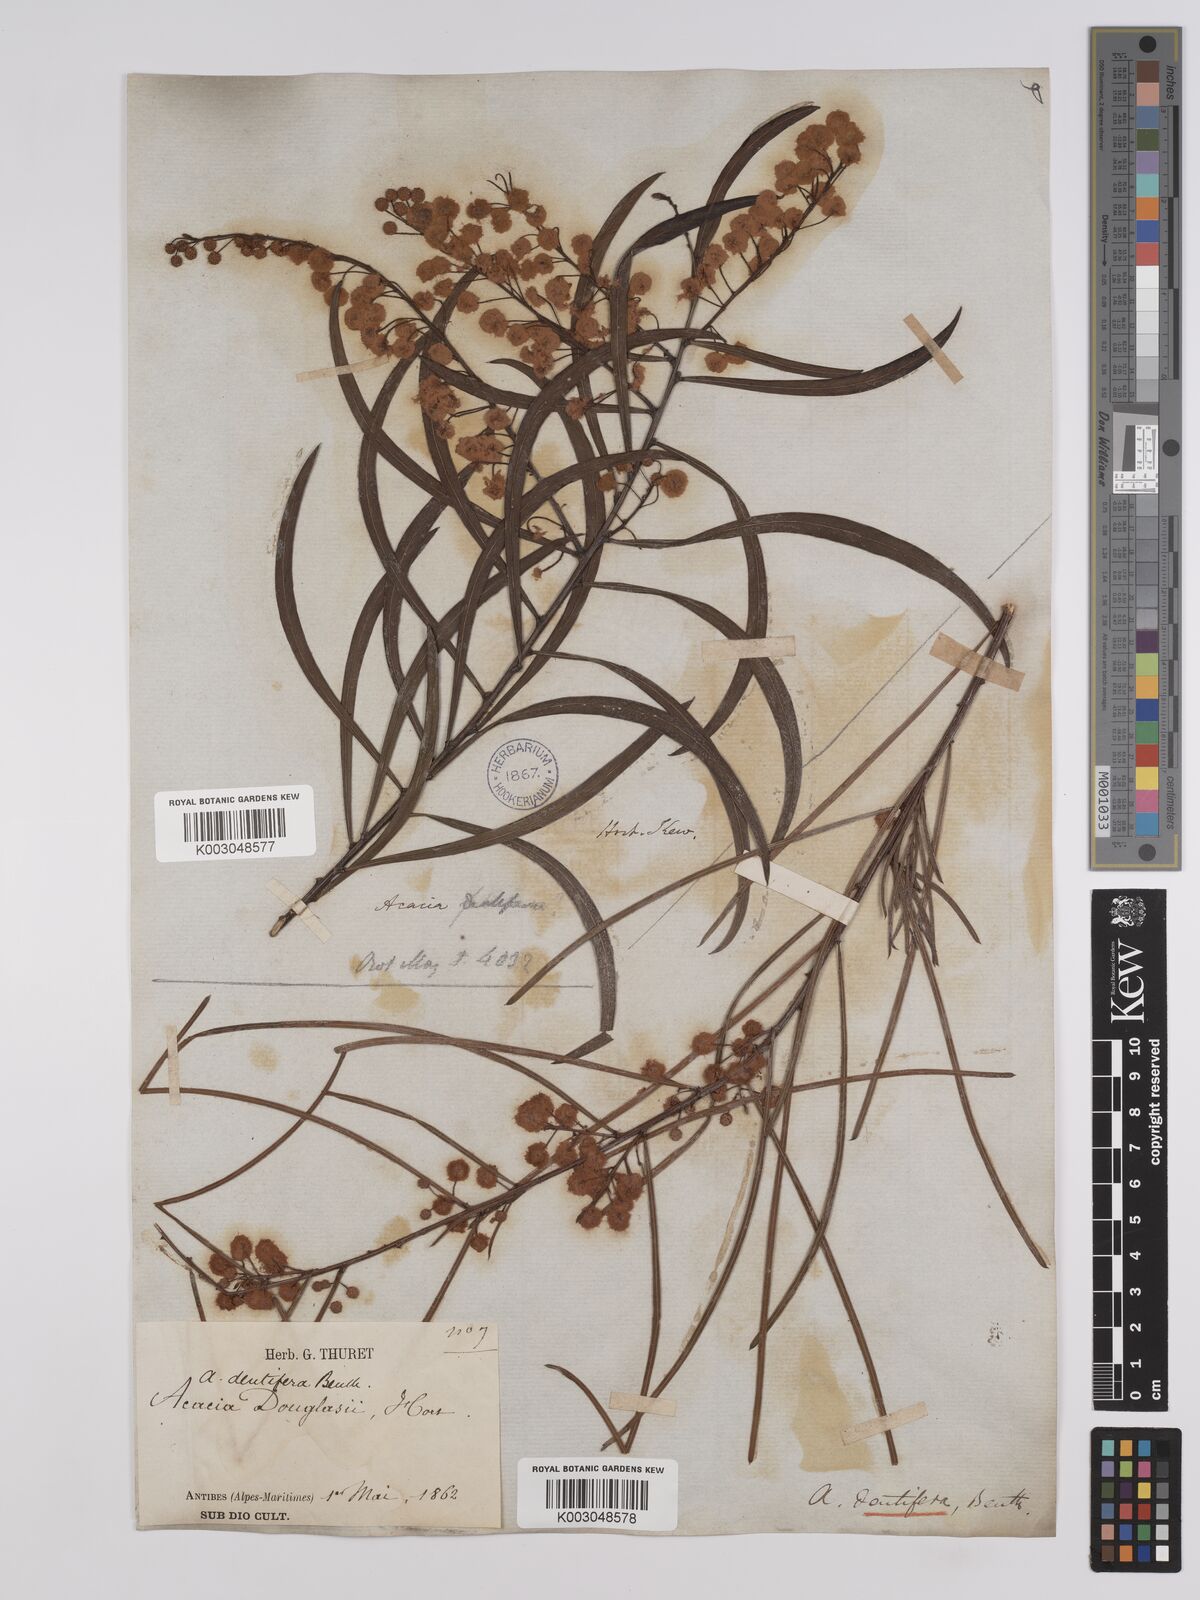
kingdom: Plantae
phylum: Tracheophyta
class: Magnoliopsida
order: Fabales
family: Fabaceae
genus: Acacia
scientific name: Acacia dentifera
